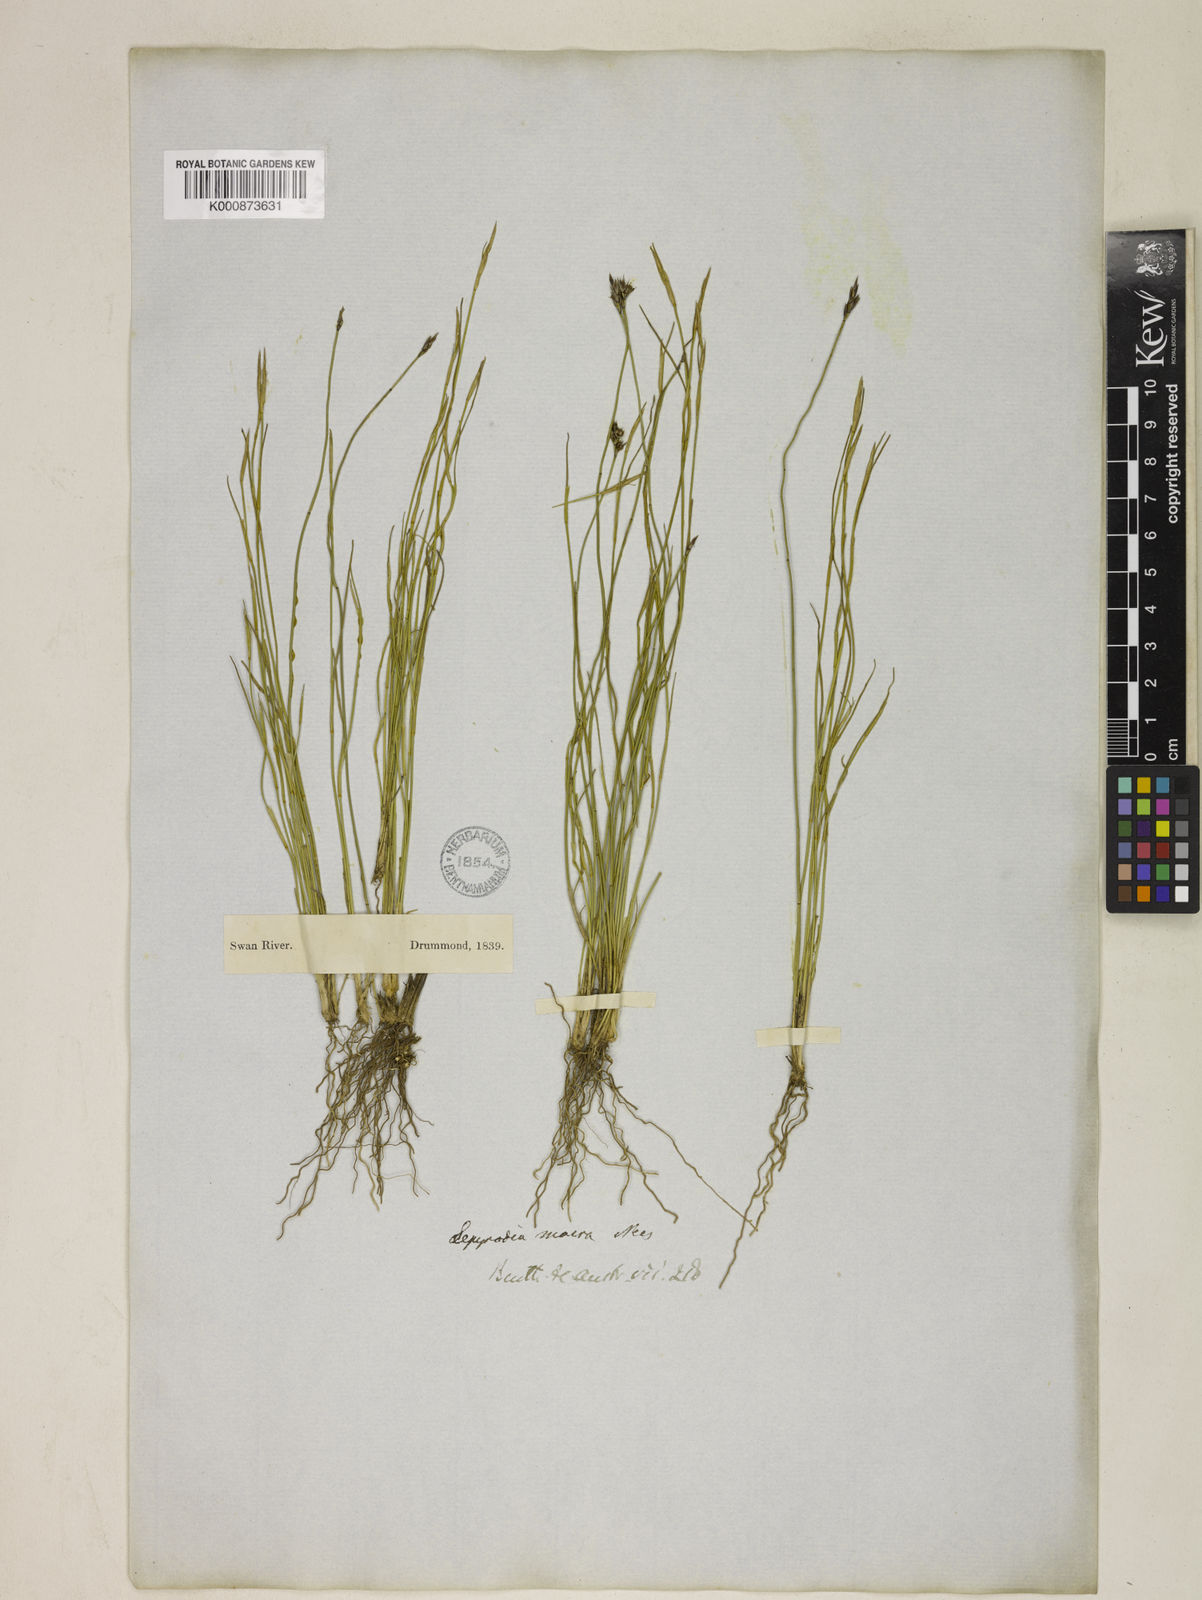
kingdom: Plantae
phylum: Tracheophyta
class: Liliopsida
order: Poales
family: Restionaceae
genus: Lepyrodia
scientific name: Lepyrodia macra
